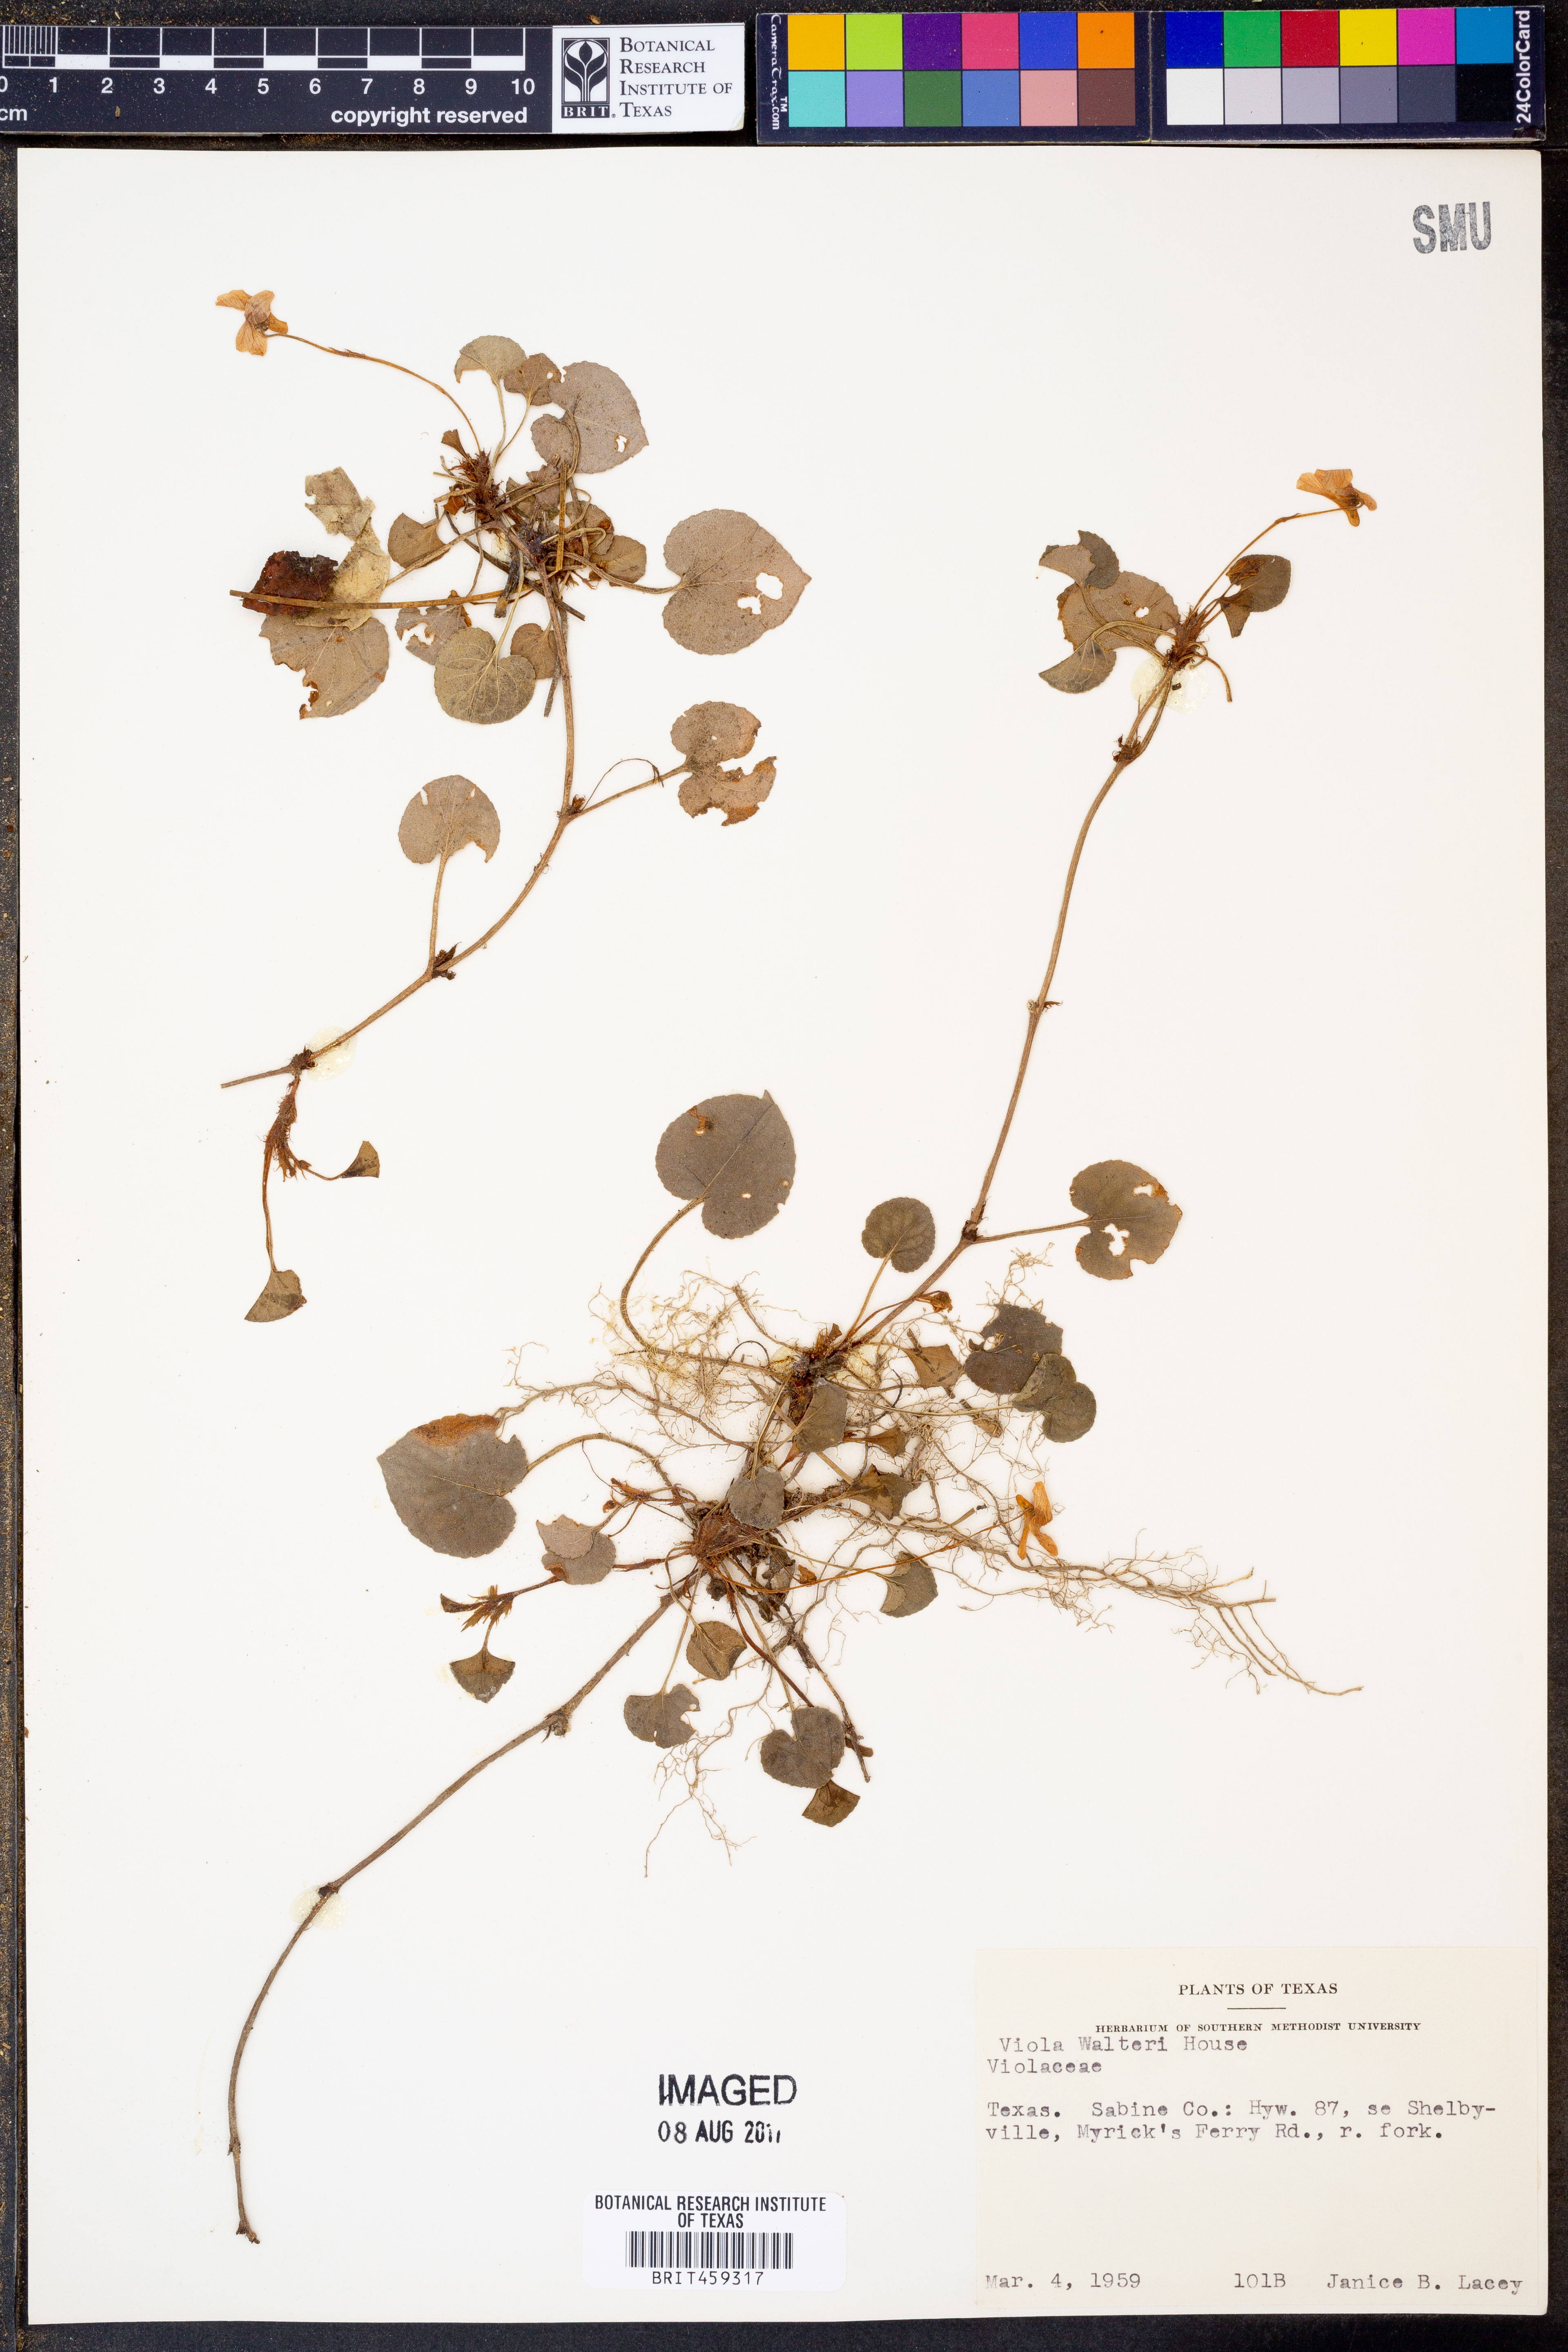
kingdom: Plantae
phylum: Tracheophyta
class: Magnoliopsida
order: Malpighiales
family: Violaceae
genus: Viola
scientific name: Viola walteri
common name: Prostrate southern violet
